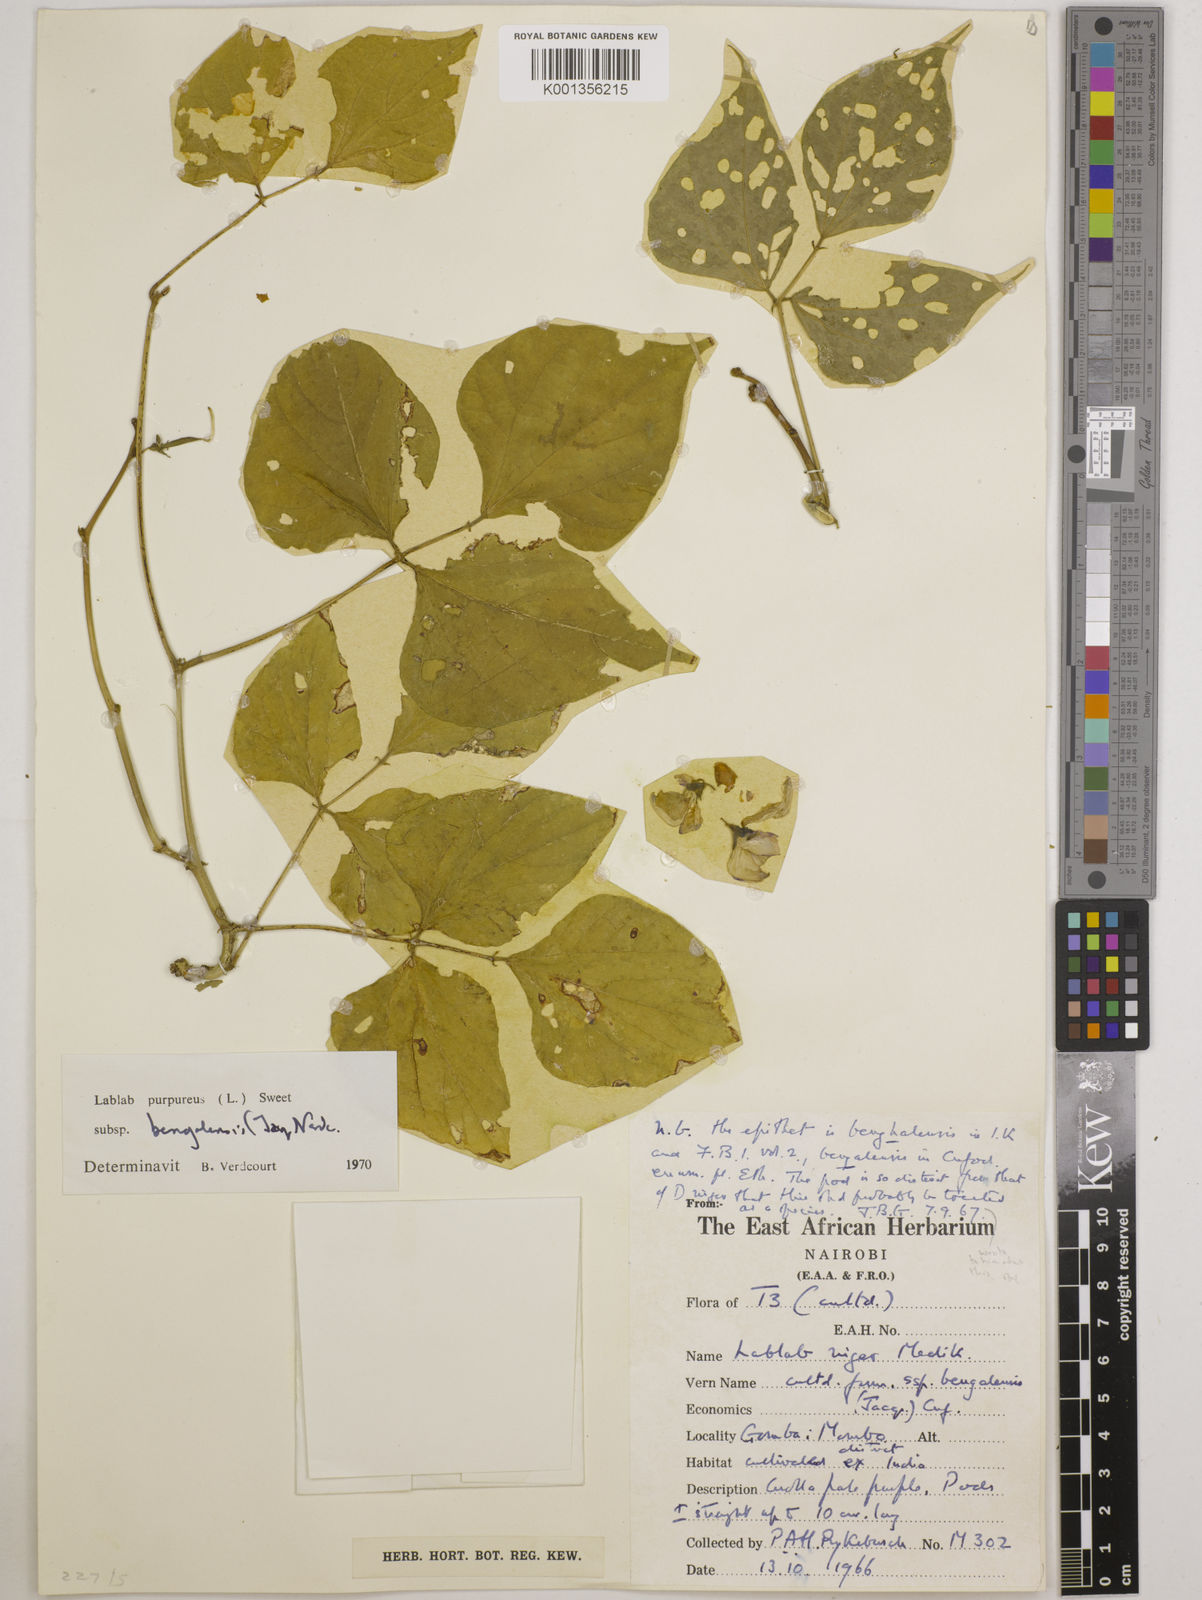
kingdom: Plantae
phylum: Tracheophyta
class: Magnoliopsida
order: Fabales
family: Fabaceae
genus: Lablab
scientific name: Lablab purpureus
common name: Lablab-bean
